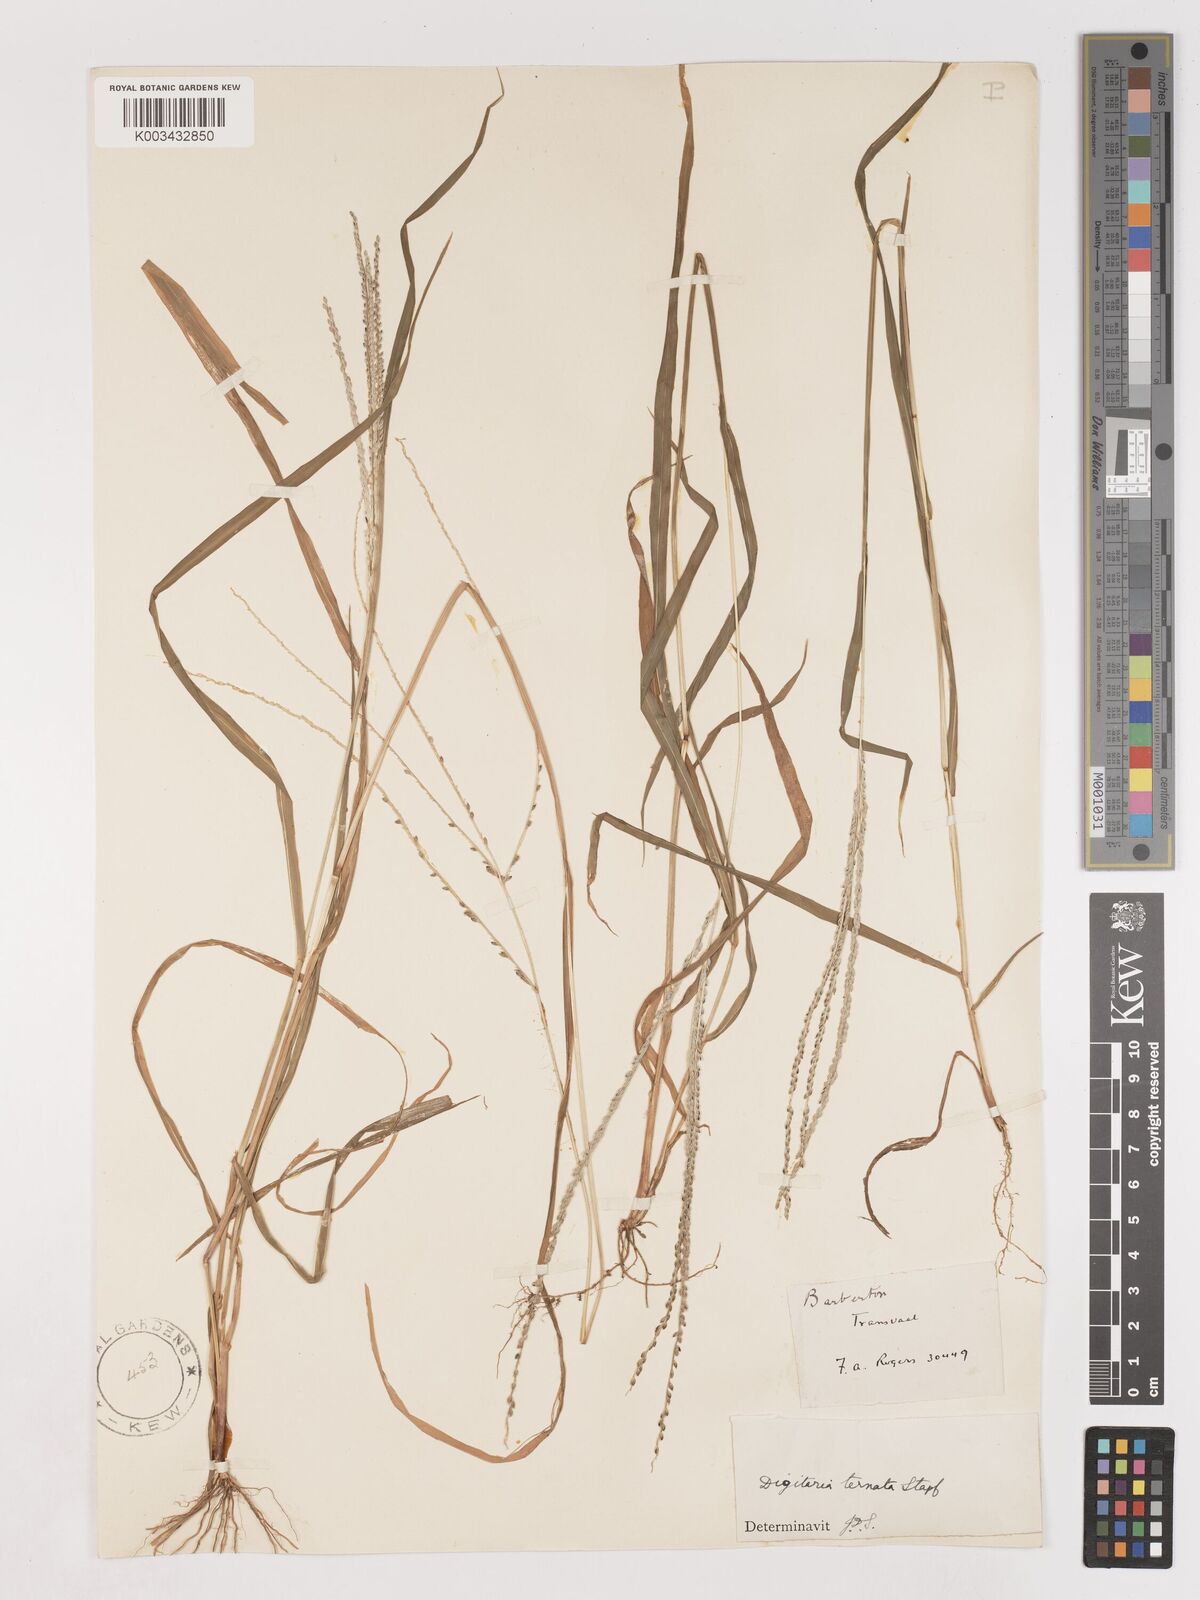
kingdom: Plantae
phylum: Tracheophyta
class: Liliopsida
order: Poales
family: Poaceae
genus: Digitaria
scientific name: Digitaria ternata
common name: Blackseed crabgrass
